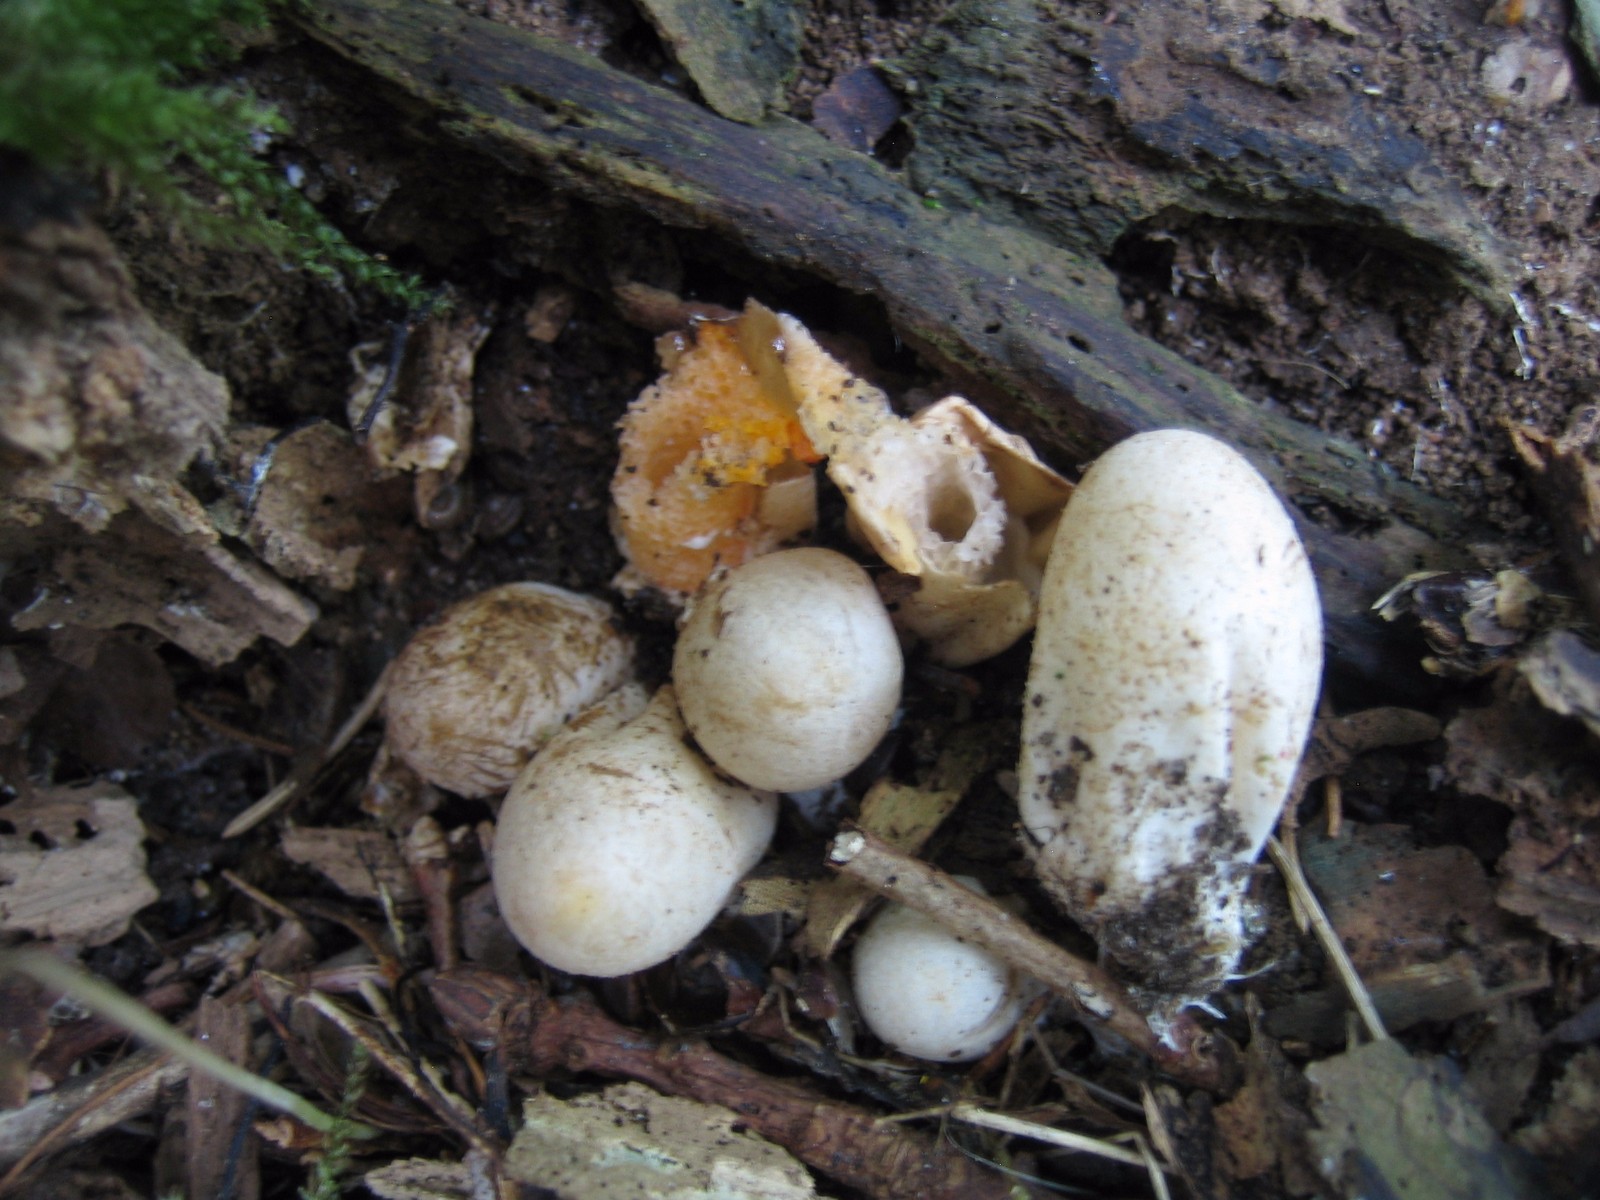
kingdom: Fungi
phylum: Basidiomycota
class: Agaricomycetes
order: Phallales
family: Phallaceae
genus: Mutinus
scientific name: Mutinus caninus
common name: hunde-stinksvamp
